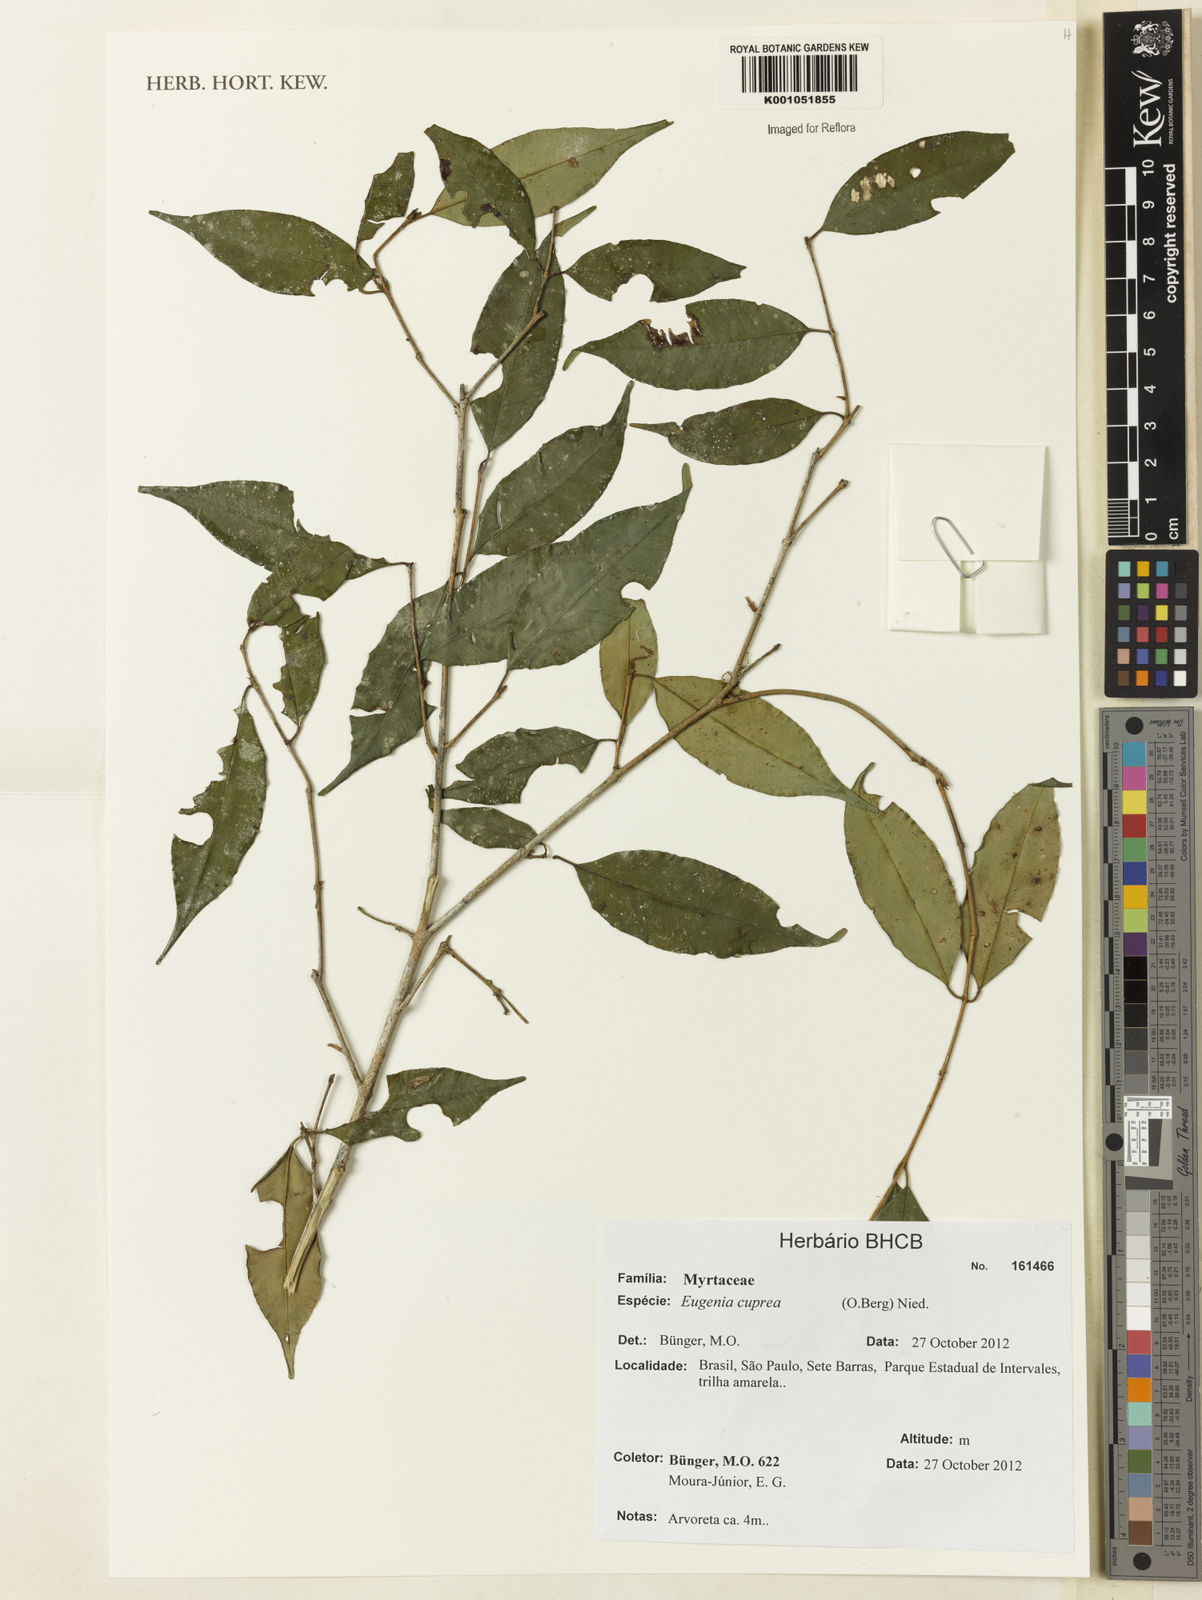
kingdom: Plantae
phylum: Tracheophyta
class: Magnoliopsida
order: Myrtales
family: Myrtaceae
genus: Eugenia
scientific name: Eugenia cuprea
